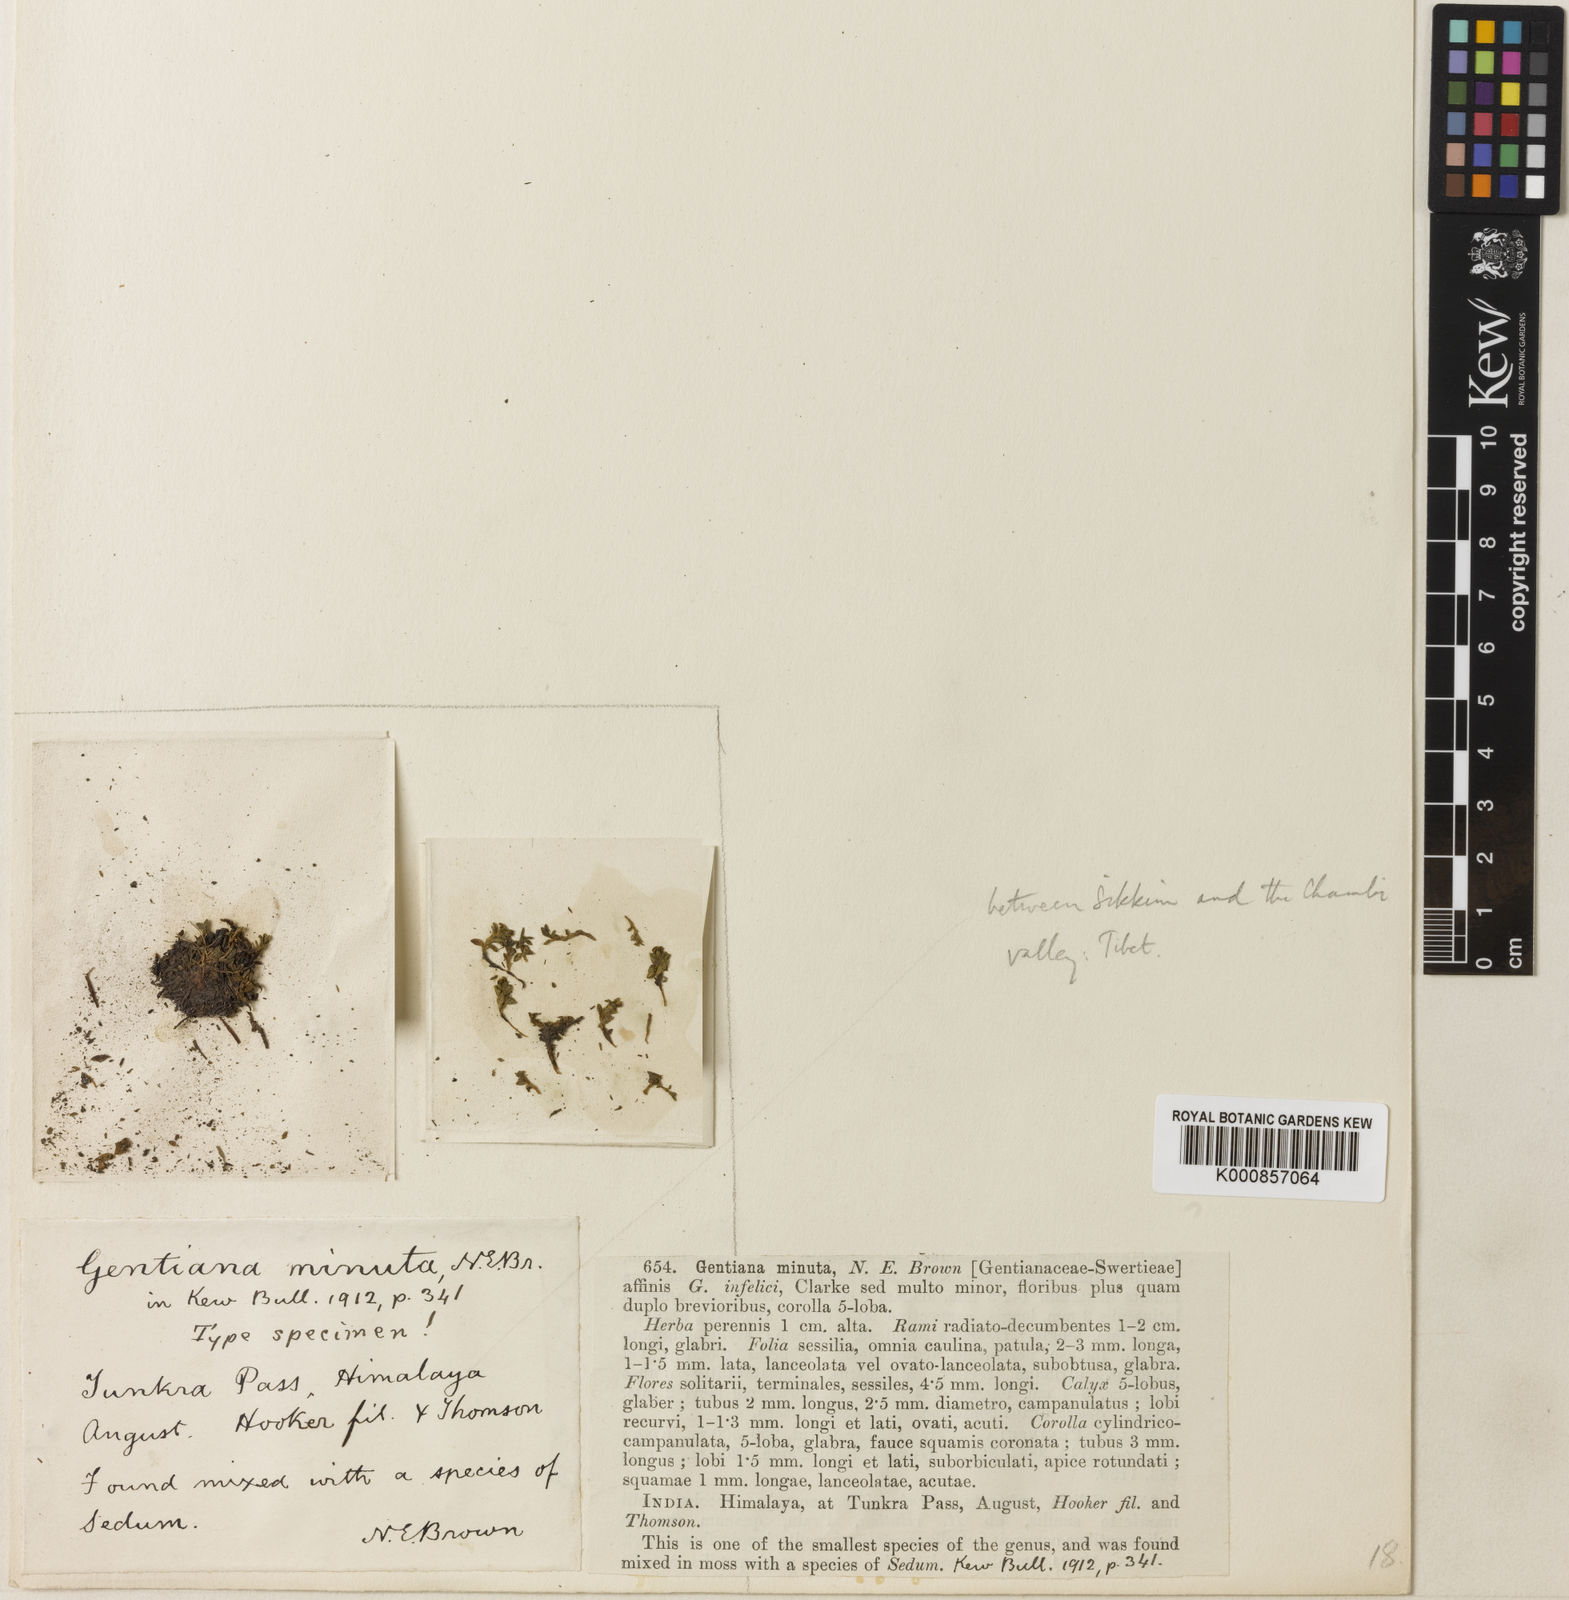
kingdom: Plantae
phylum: Tracheophyta
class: Magnoliopsida
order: Gentianales
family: Gentianaceae
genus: Kuepferia
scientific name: Kuepferia infelix
